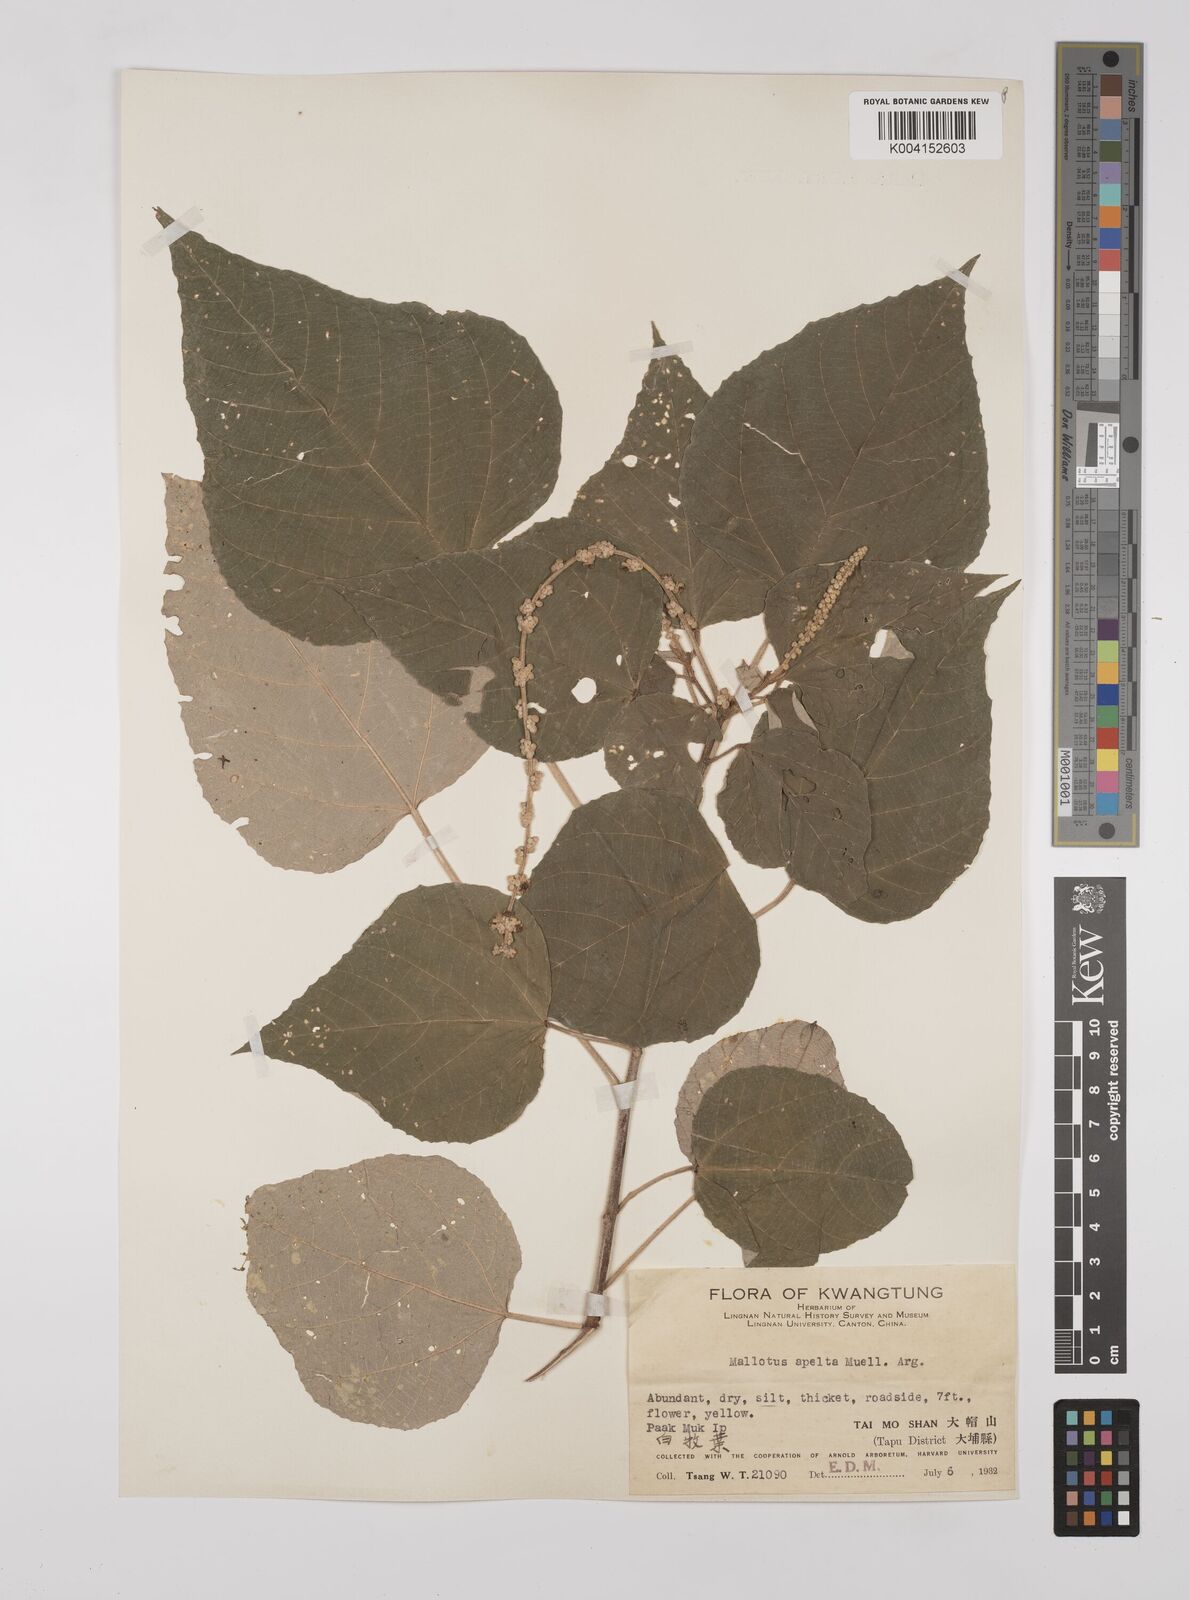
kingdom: Plantae
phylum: Tracheophyta
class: Magnoliopsida
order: Malpighiales
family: Euphorbiaceae
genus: Mallotus
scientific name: Mallotus apelta
